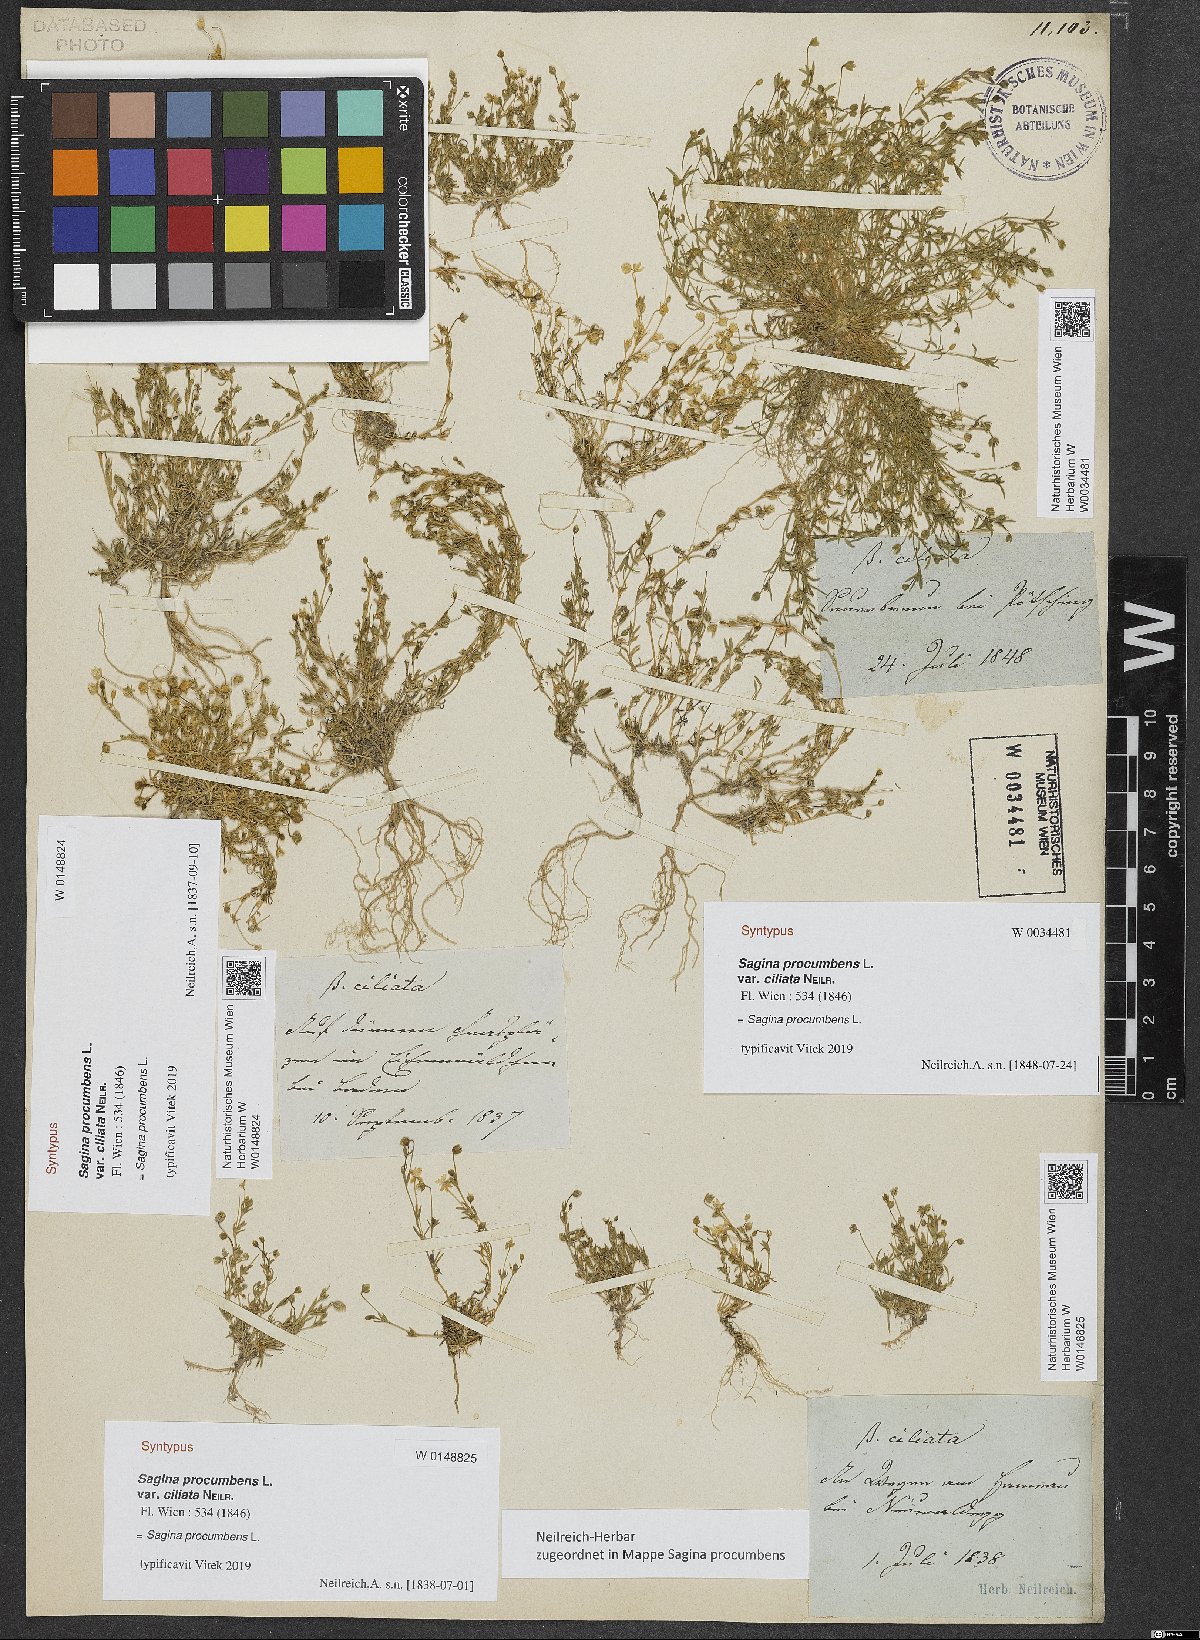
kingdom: Plantae
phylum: Tracheophyta
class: Magnoliopsida
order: Caryophyllales
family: Caryophyllaceae
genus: Sagina
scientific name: Sagina procumbens
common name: Procumbent pearlwort
